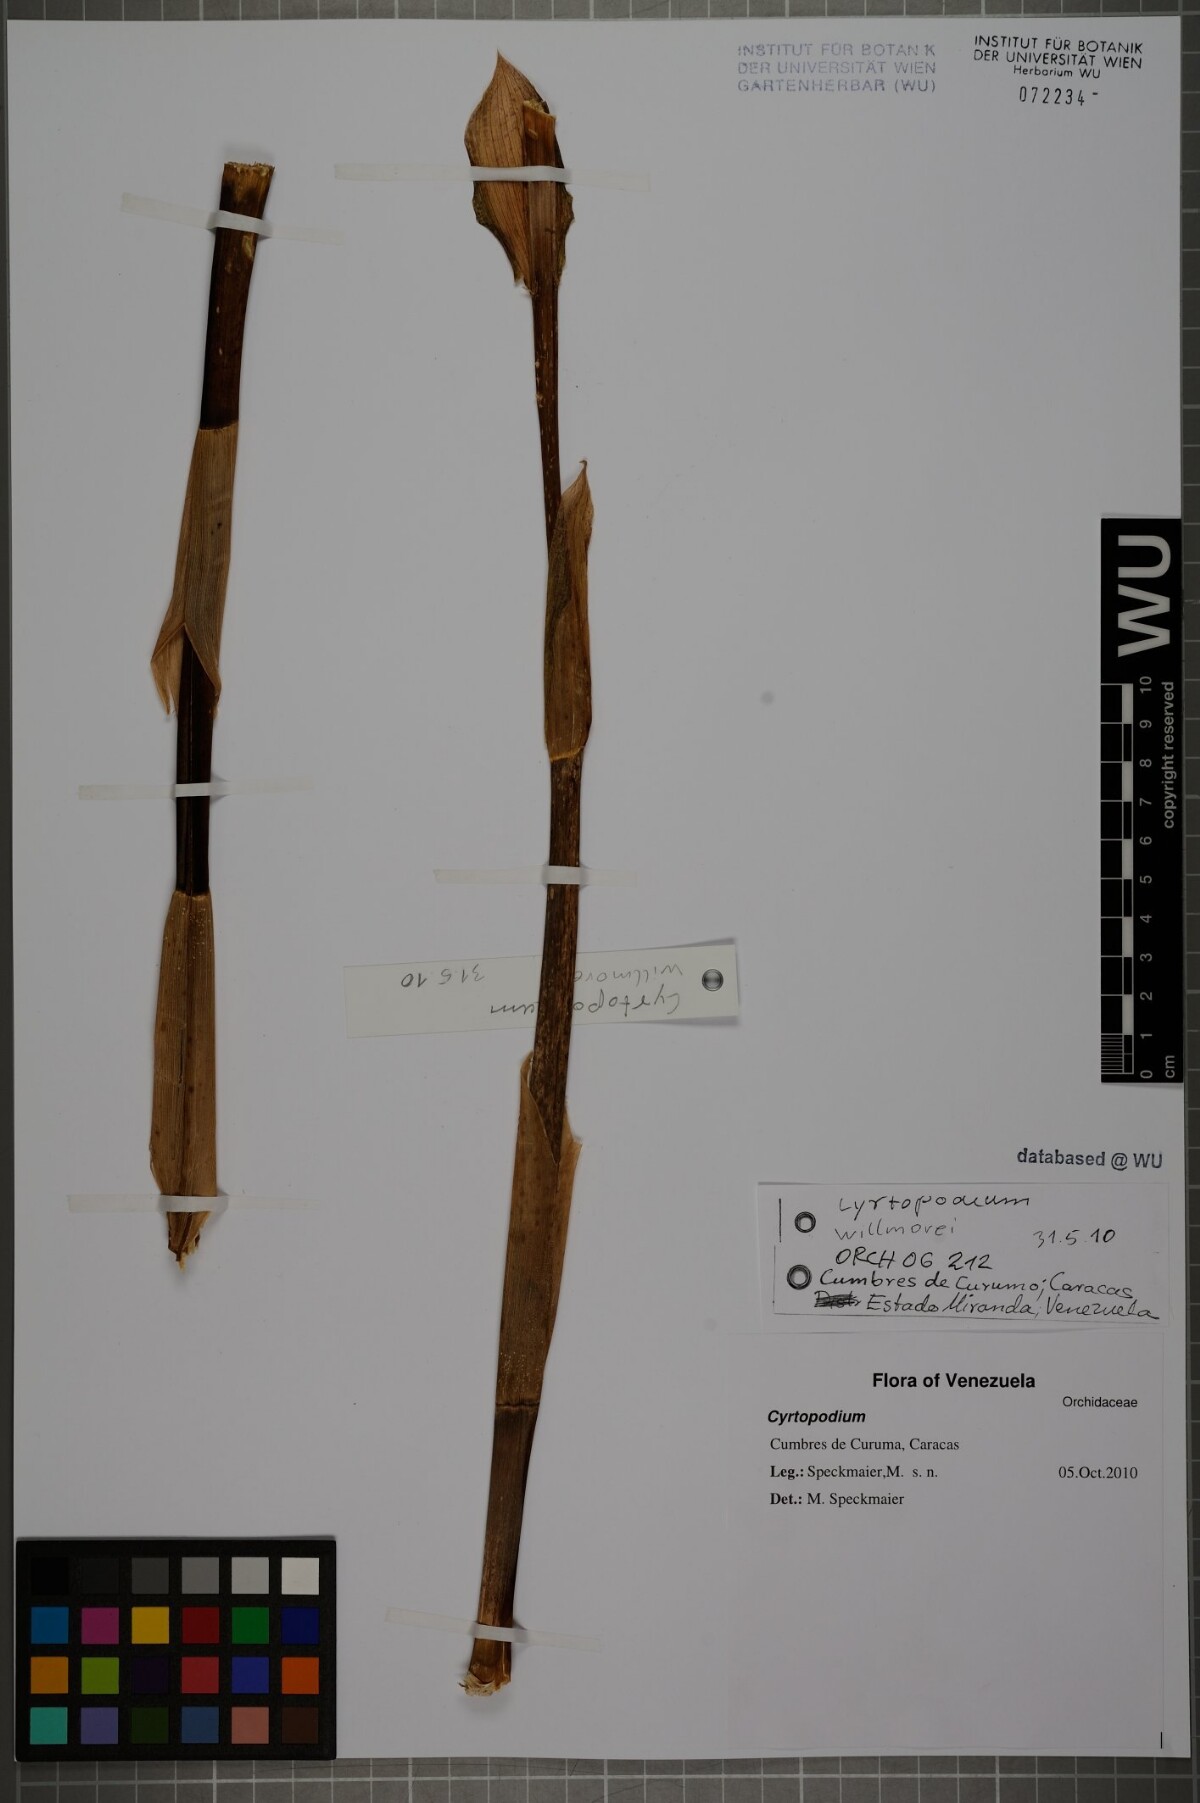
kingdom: Plantae
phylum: Tracheophyta
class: Liliopsida
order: Asparagales
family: Orchidaceae
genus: Cyrtopodium
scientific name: Cyrtopodium willmorei
